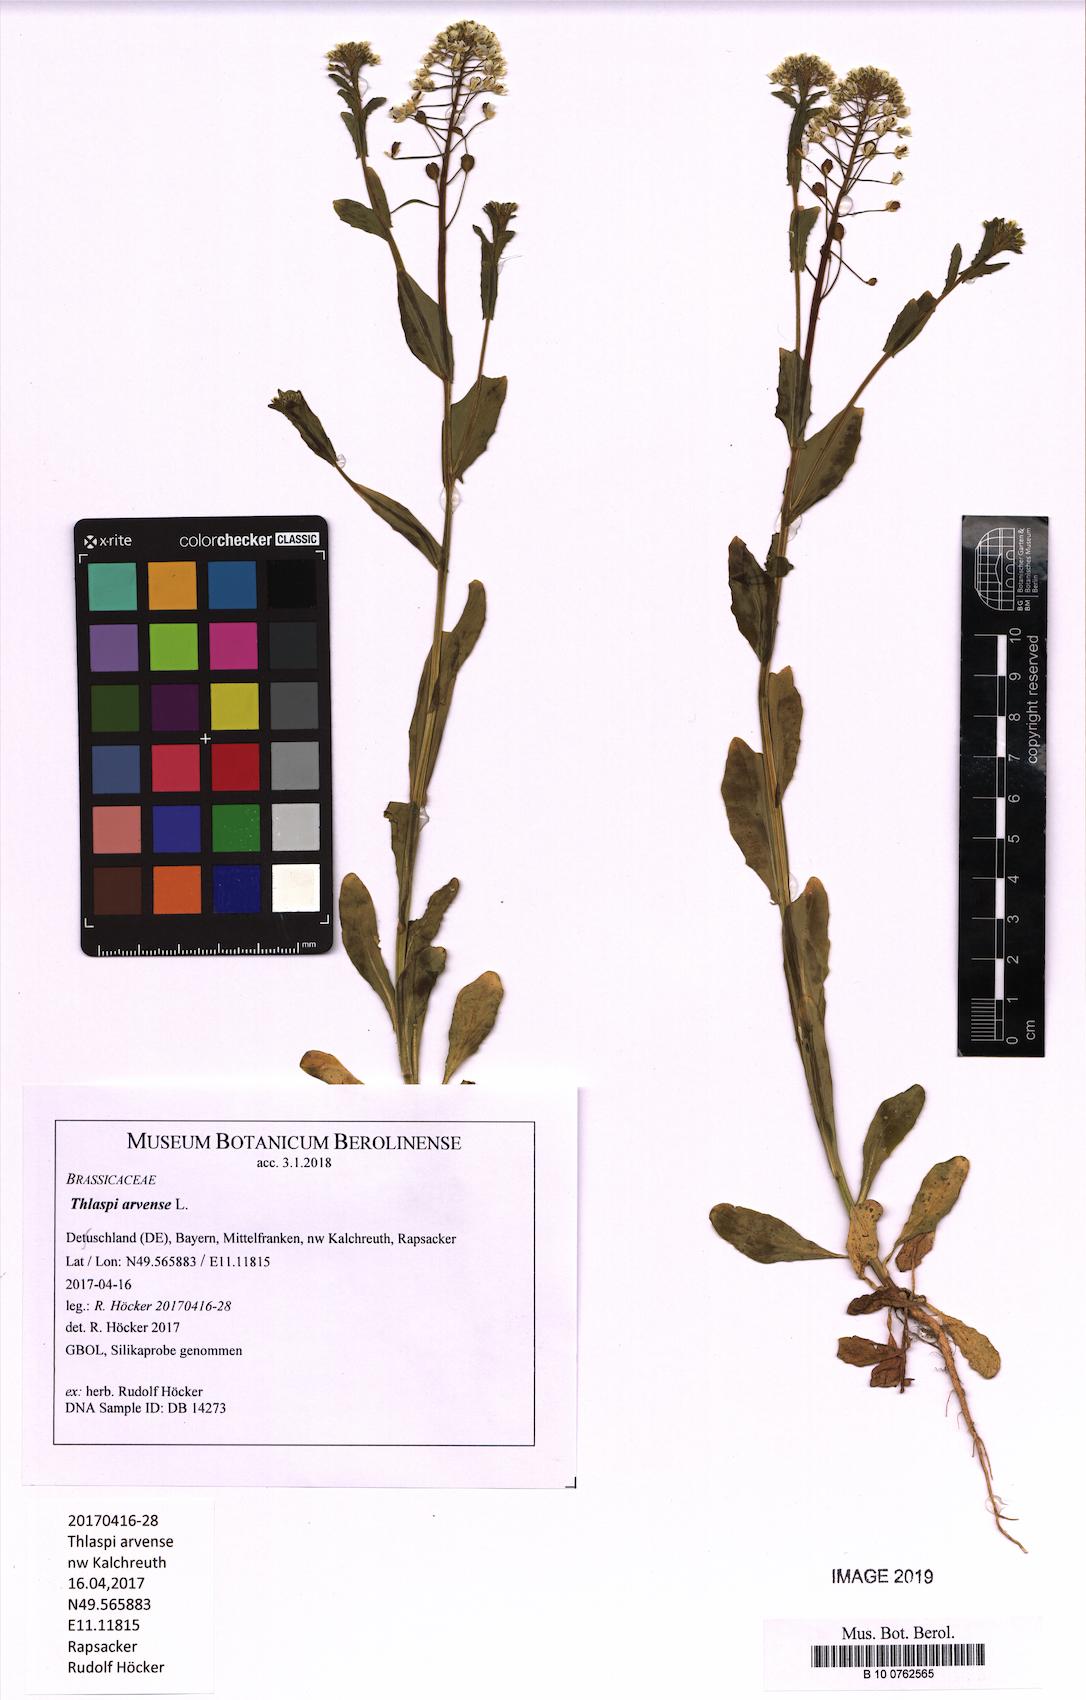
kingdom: Plantae
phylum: Tracheophyta
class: Magnoliopsida
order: Brassicales
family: Brassicaceae
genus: Thlaspi
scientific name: Thlaspi arvense
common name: Field pennycress
